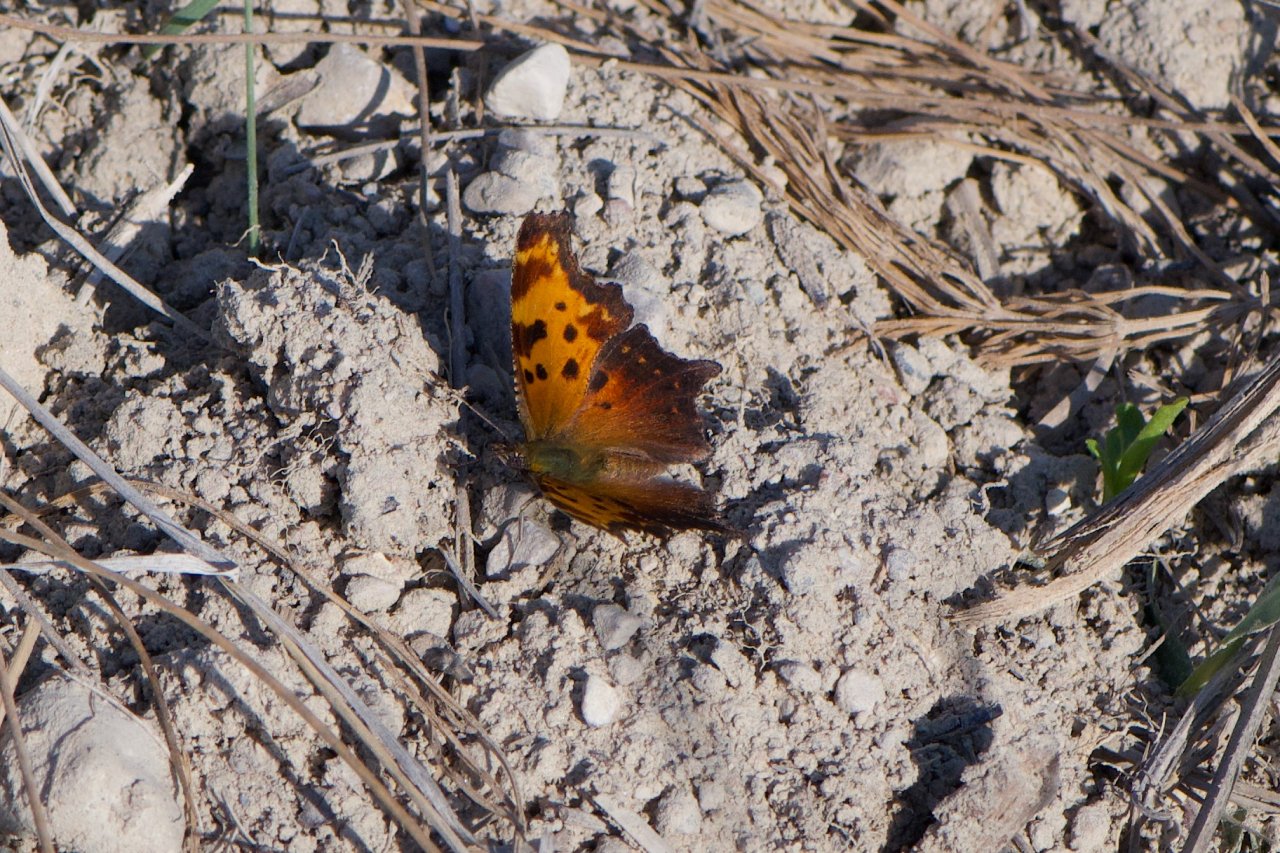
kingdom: Animalia
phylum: Arthropoda
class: Insecta
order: Lepidoptera
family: Nymphalidae
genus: Polygonia
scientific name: Polygonia progne
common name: Gray Comma
